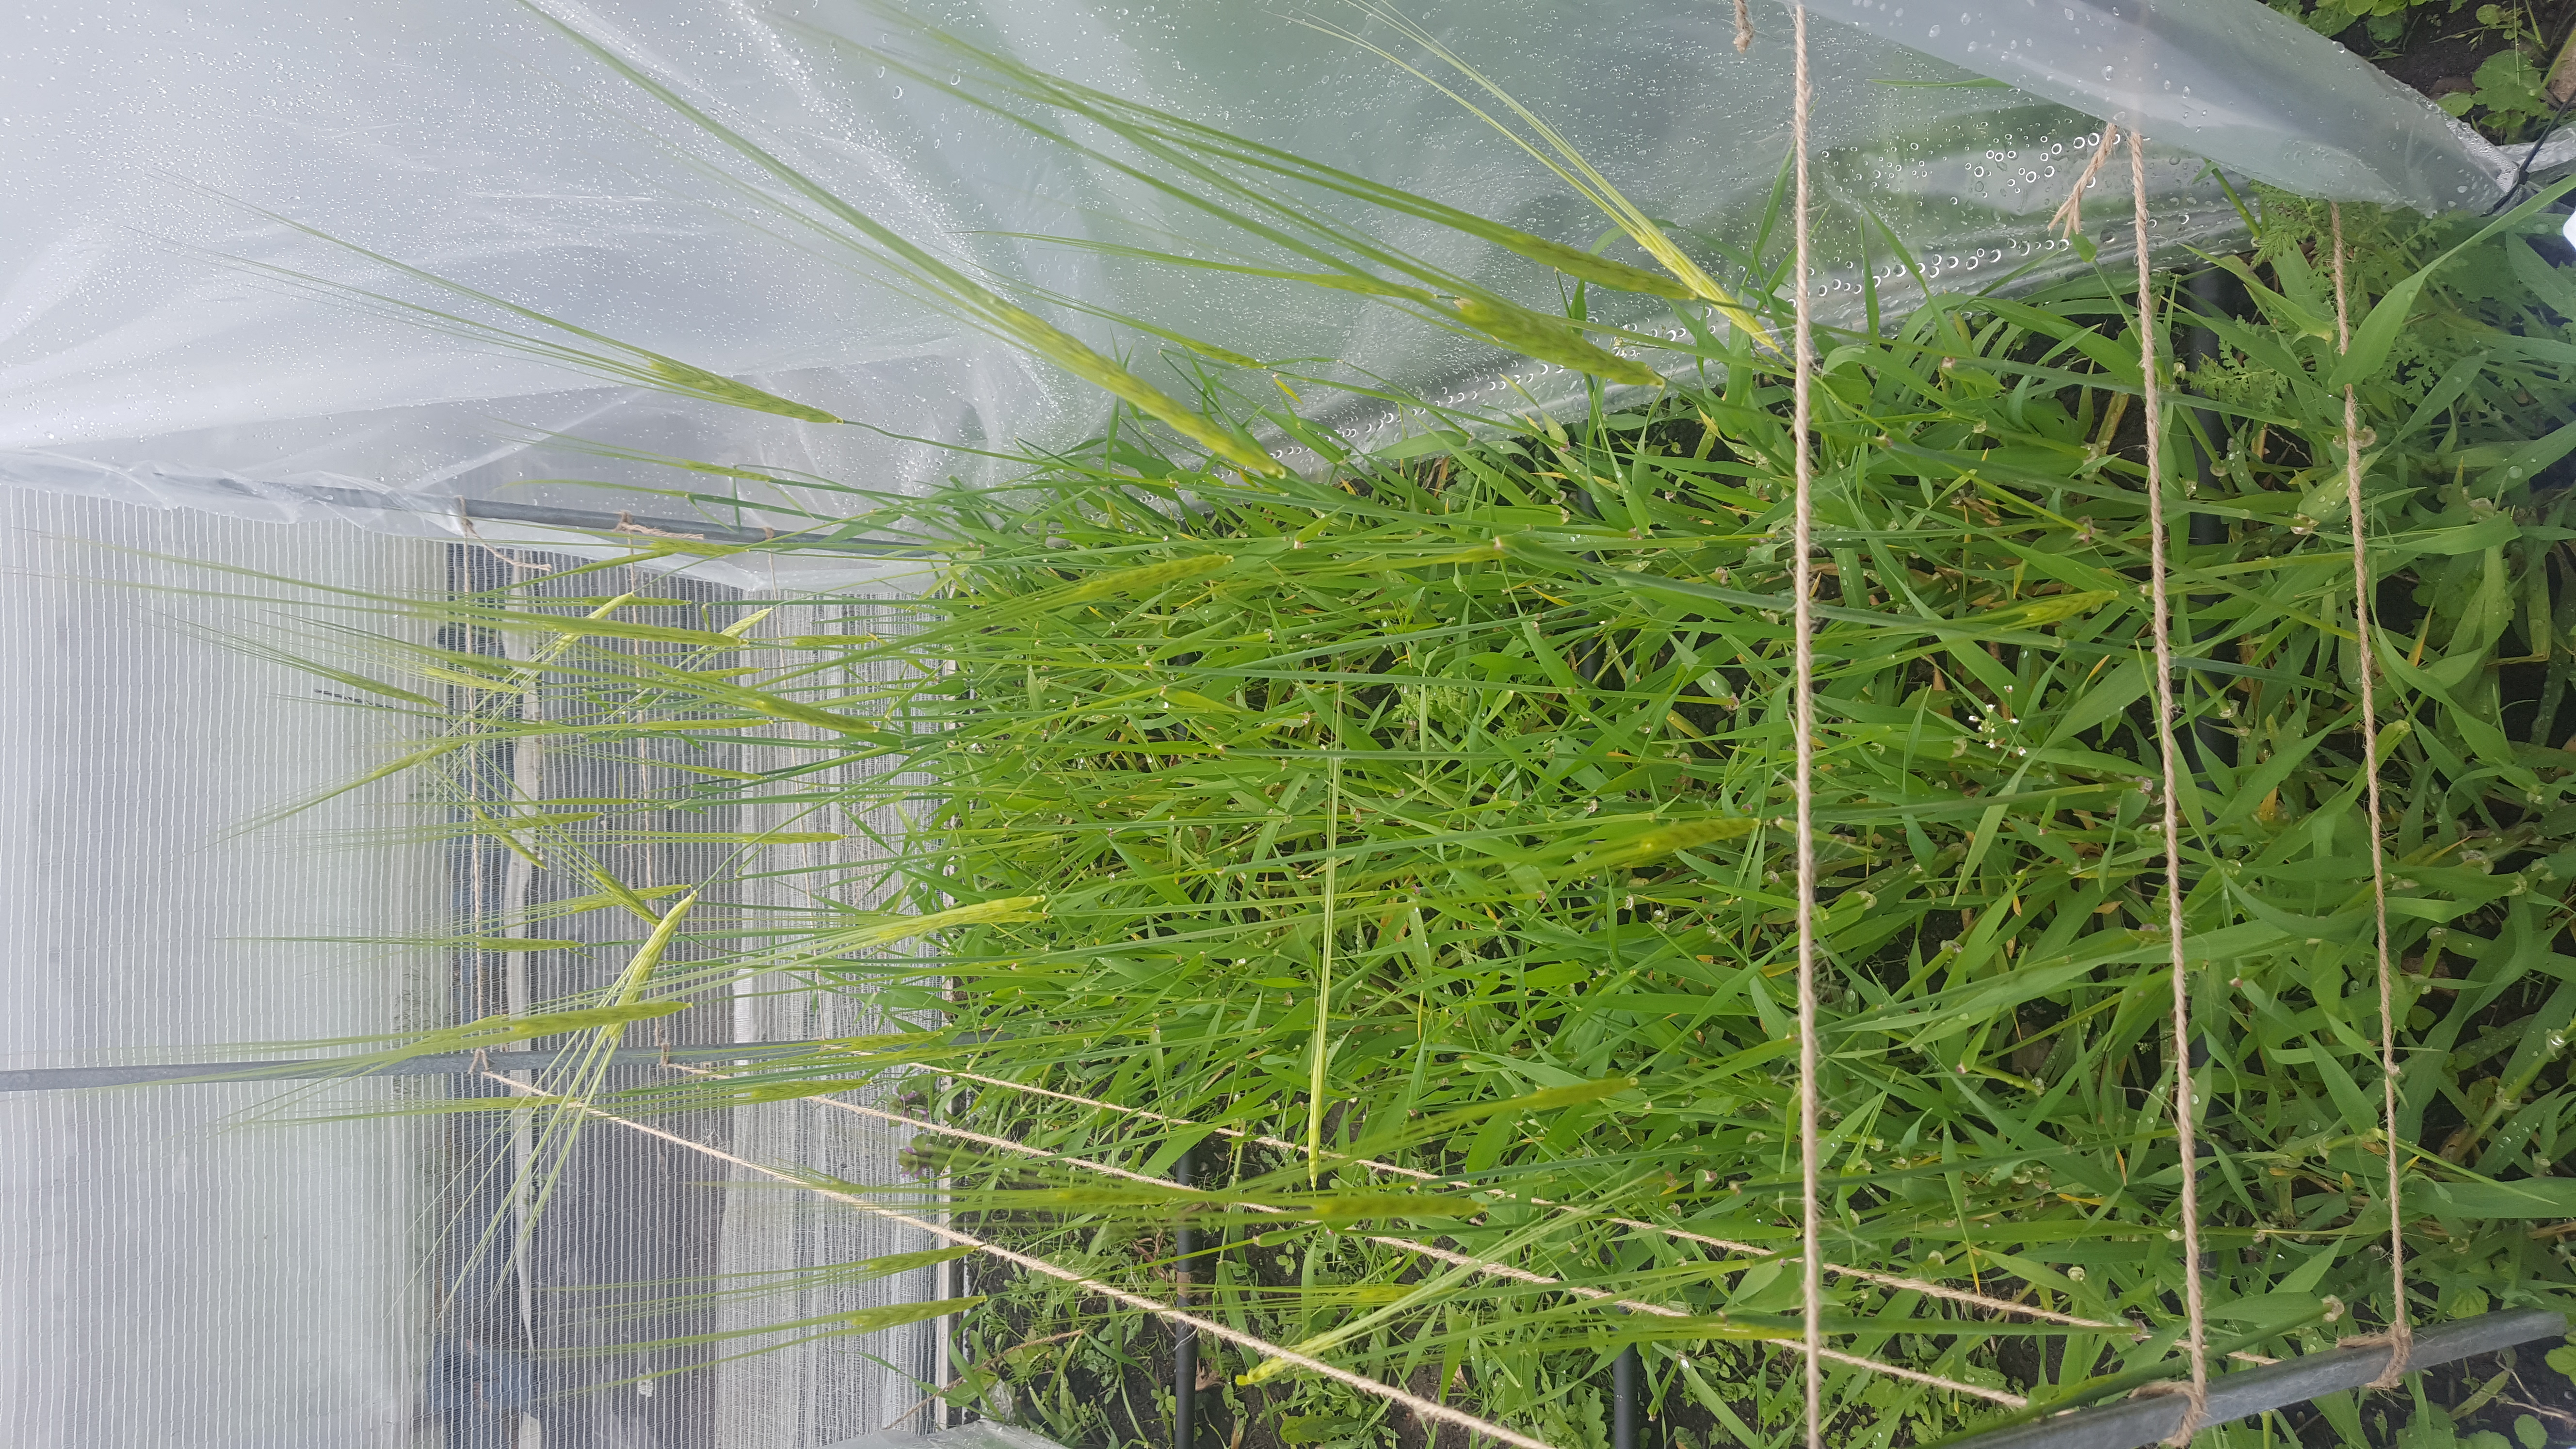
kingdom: Plantae
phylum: Tracheophyta
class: Liliopsida
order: Poales
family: Poaceae
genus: Hordeum
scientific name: Hordeum spontaneum
